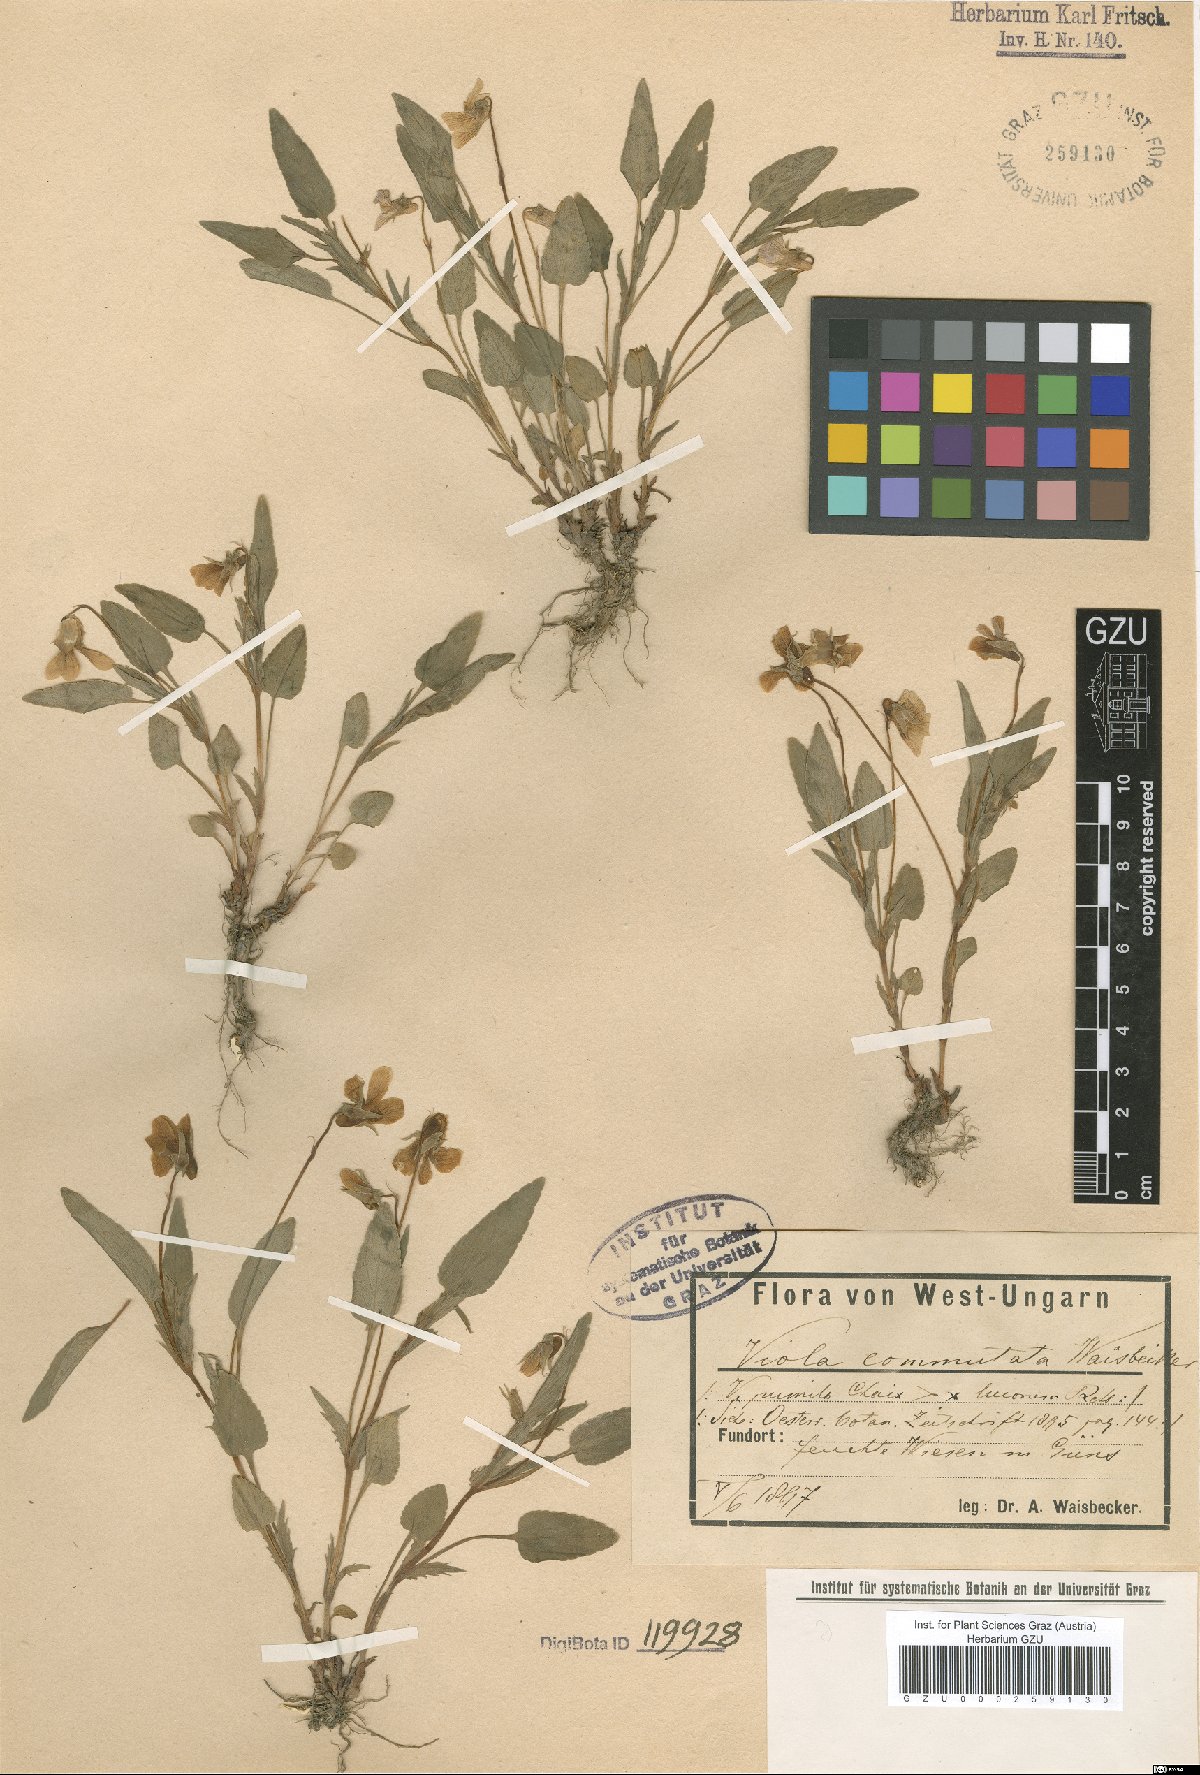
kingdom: Plantae
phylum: Tracheophyta
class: Magnoliopsida
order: Malpighiales
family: Violaceae
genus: Viola
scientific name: Viola commutata
